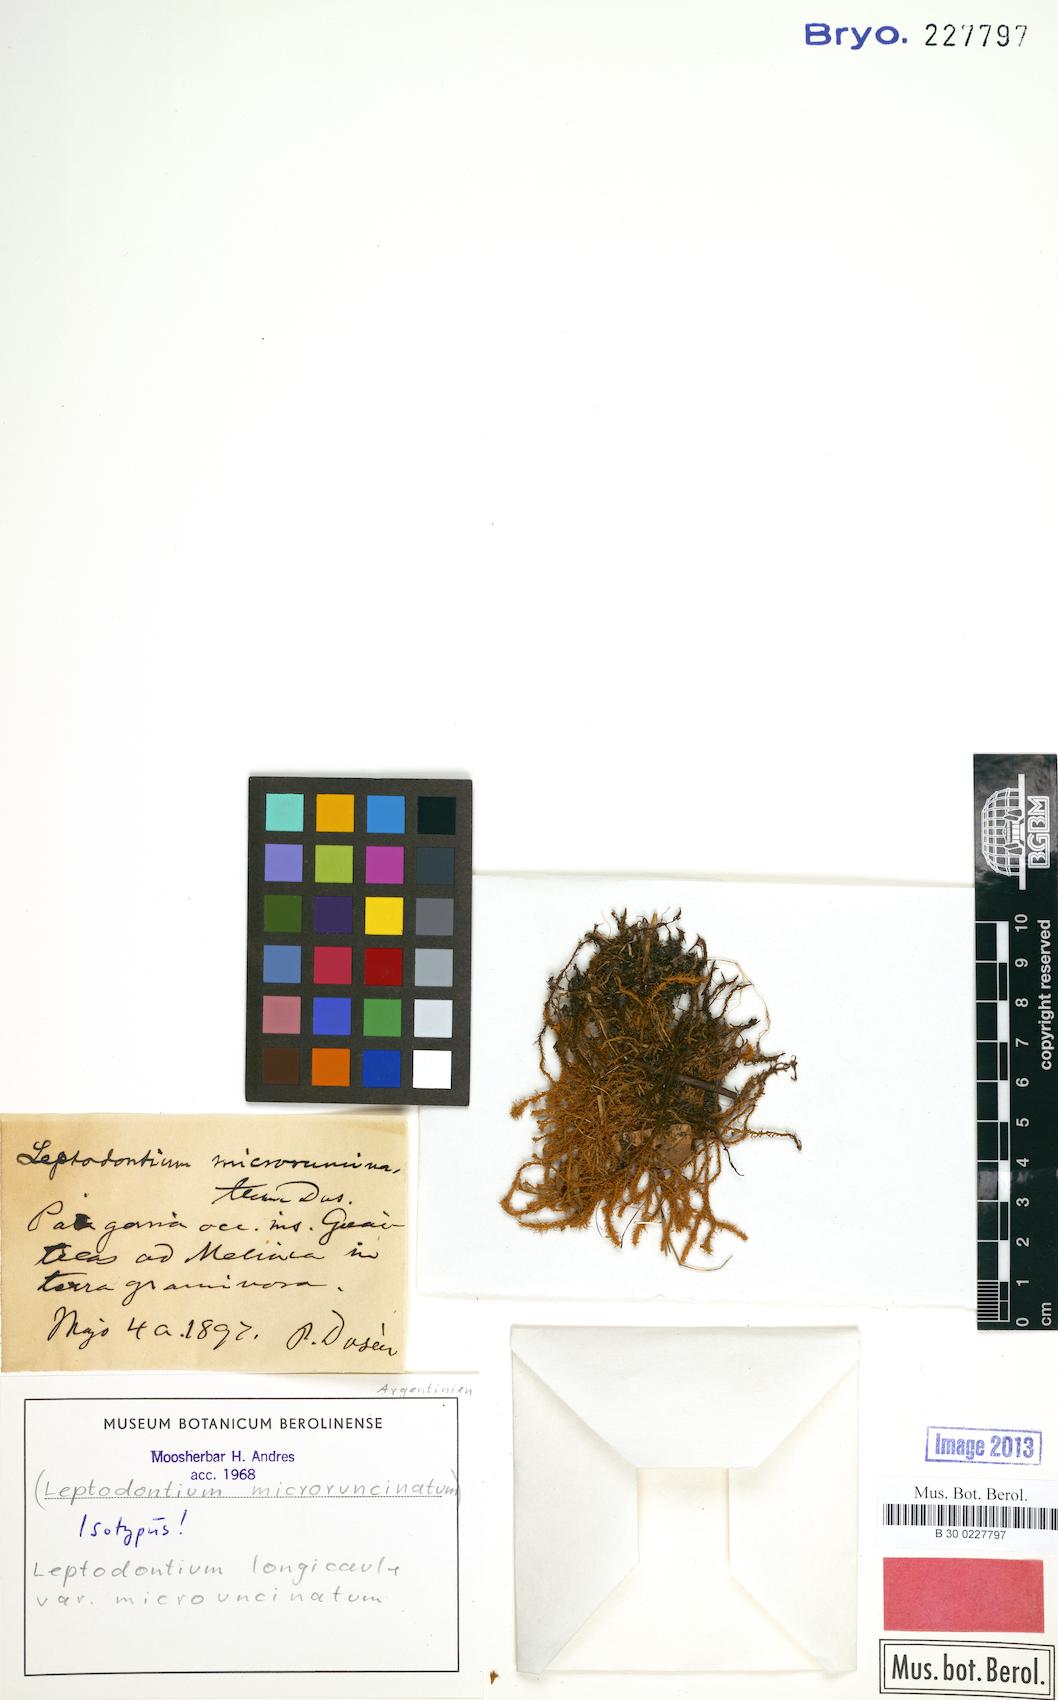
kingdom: Plantae
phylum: Bryophyta
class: Bryopsida
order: Pottiales
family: Pottiaceae
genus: Leptodontium
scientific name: Leptodontium longicaule
